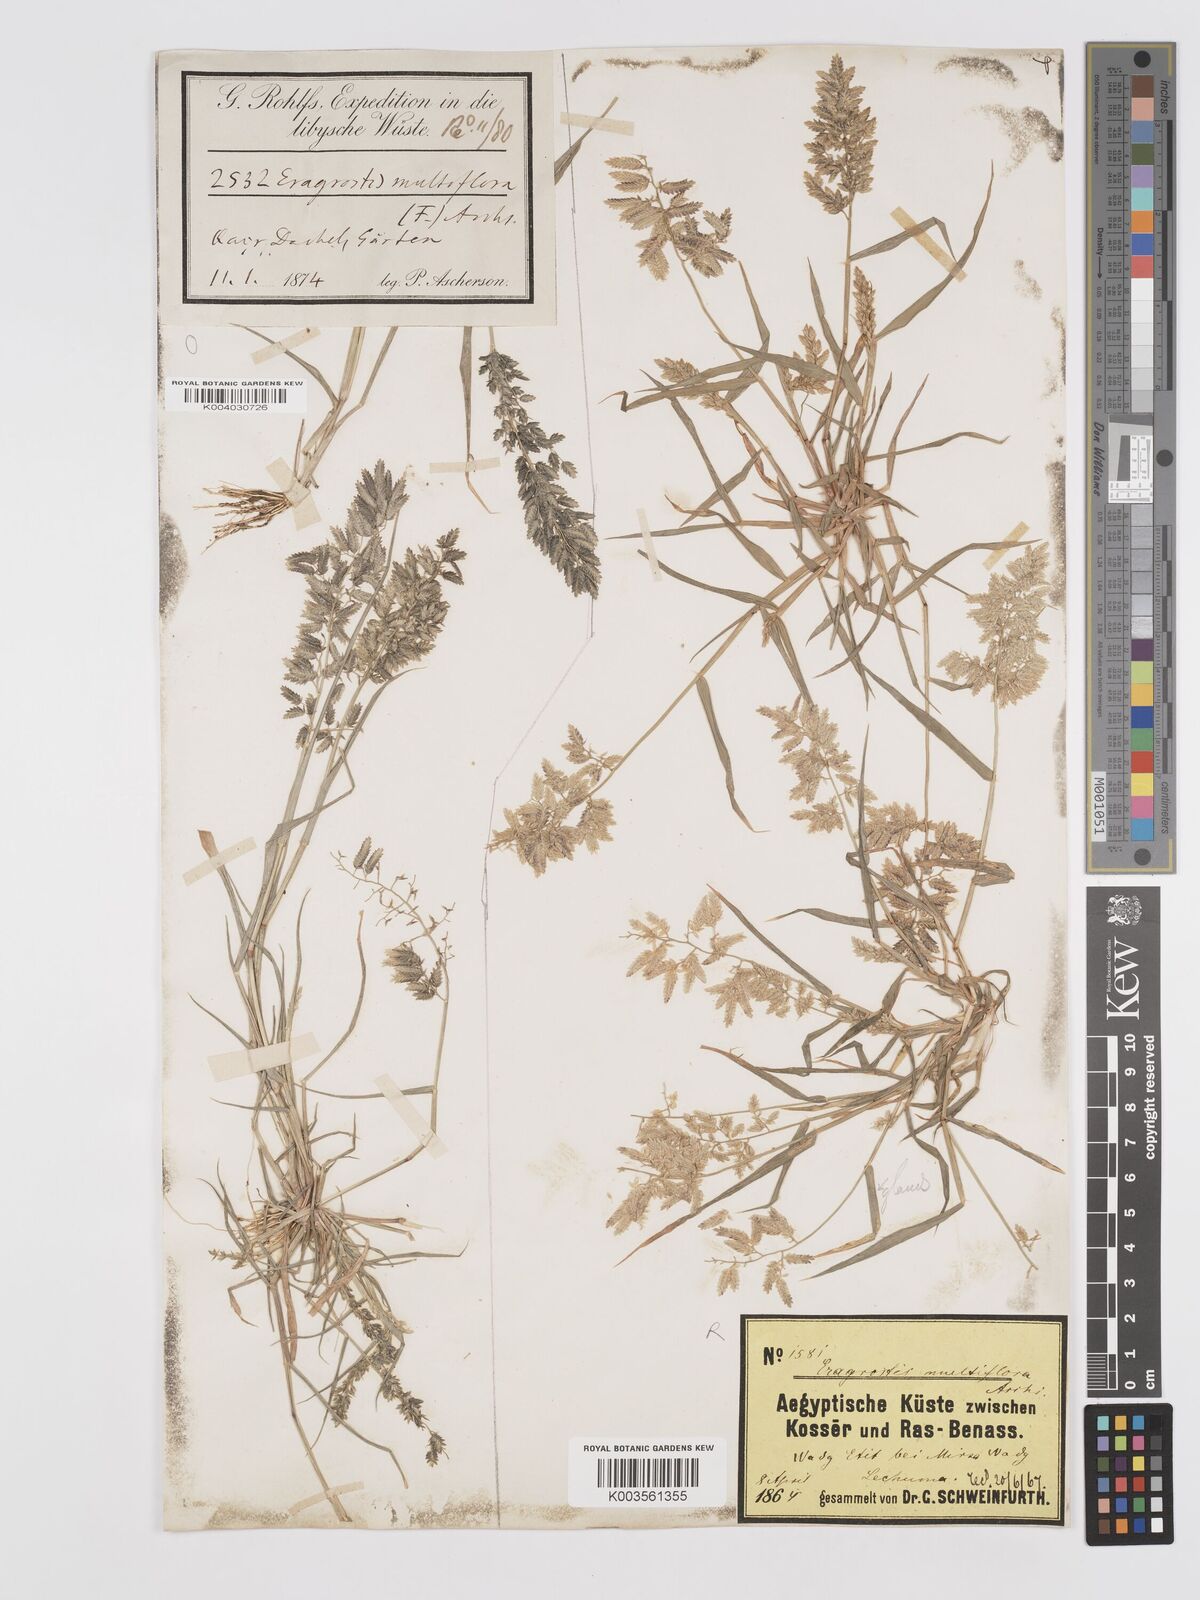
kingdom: Plantae
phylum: Tracheophyta
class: Liliopsida
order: Poales
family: Poaceae
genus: Eragrostis
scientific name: Eragrostis cilianensis
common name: Stinkgrass
